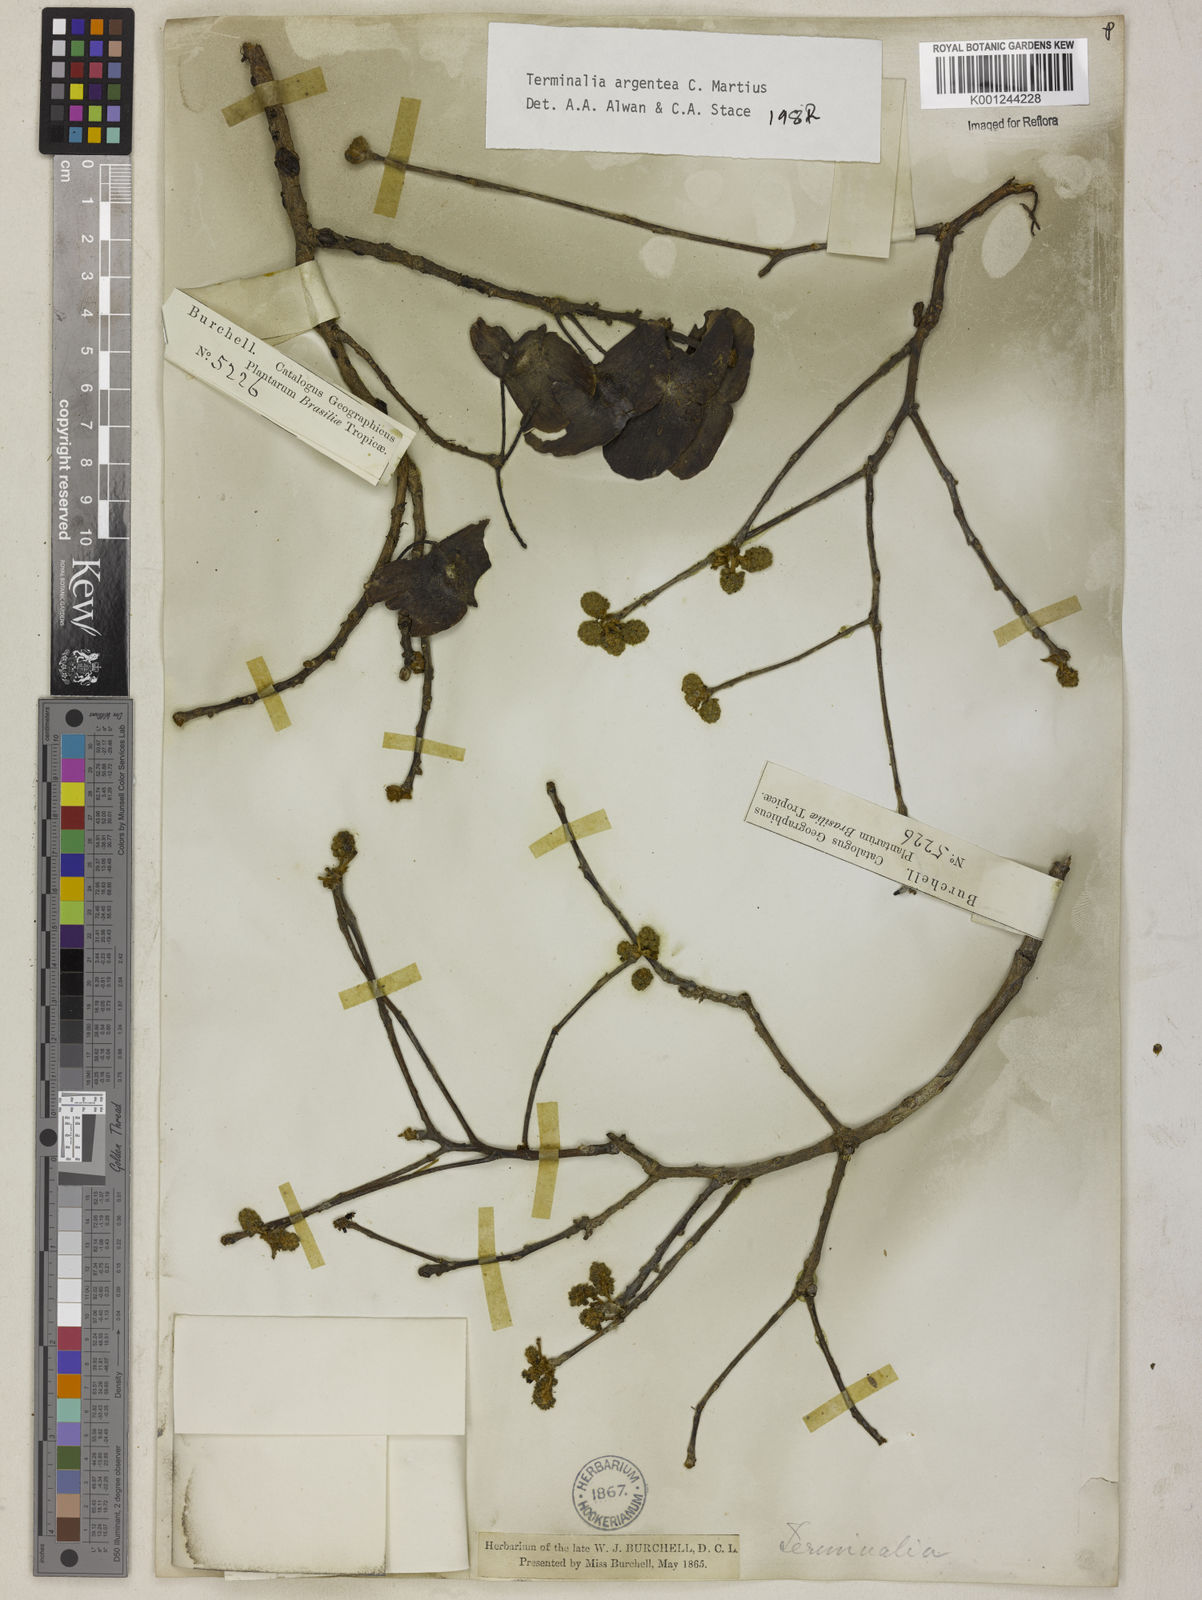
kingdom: Plantae
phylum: Tracheophyta
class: Magnoliopsida
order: Myrtales
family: Combretaceae
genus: Terminalia
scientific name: Terminalia argentea
